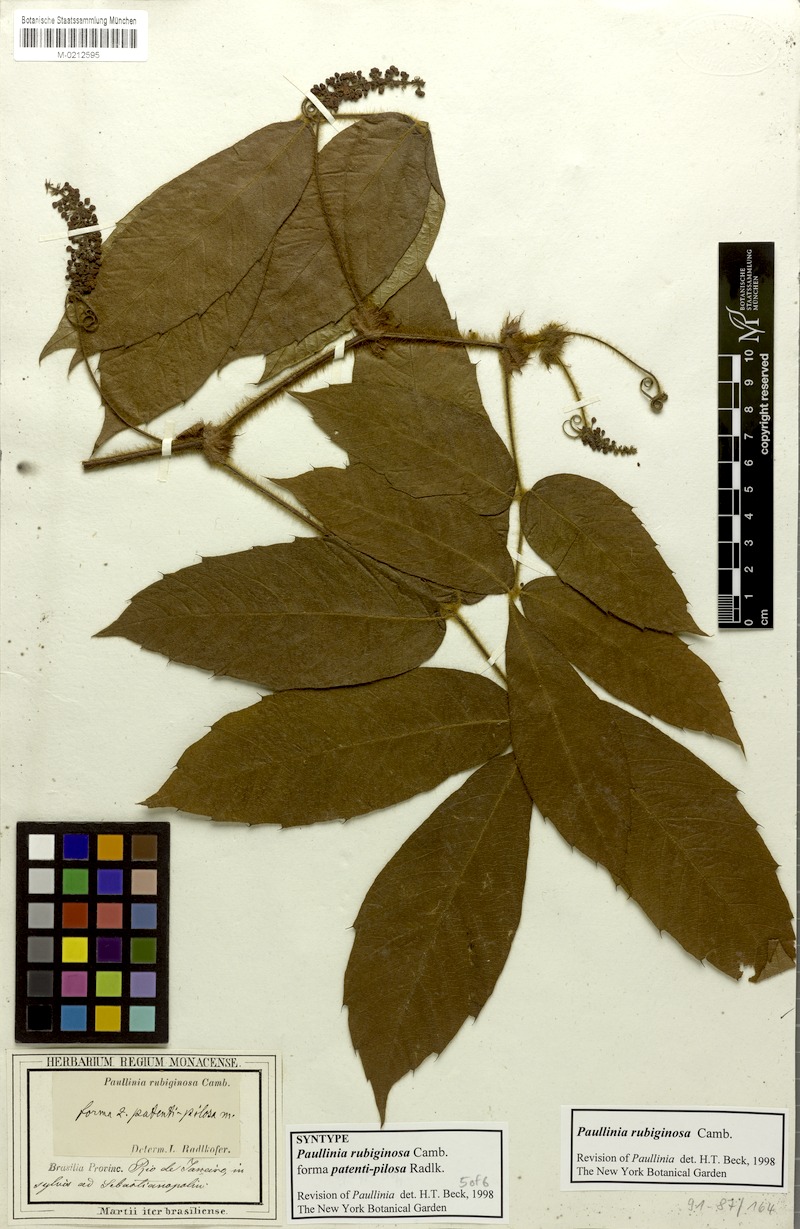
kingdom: Plantae
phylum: Tracheophyta
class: Magnoliopsida
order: Sapindales
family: Sapindaceae
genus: Paullinia
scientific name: Paullinia rubiginosa
